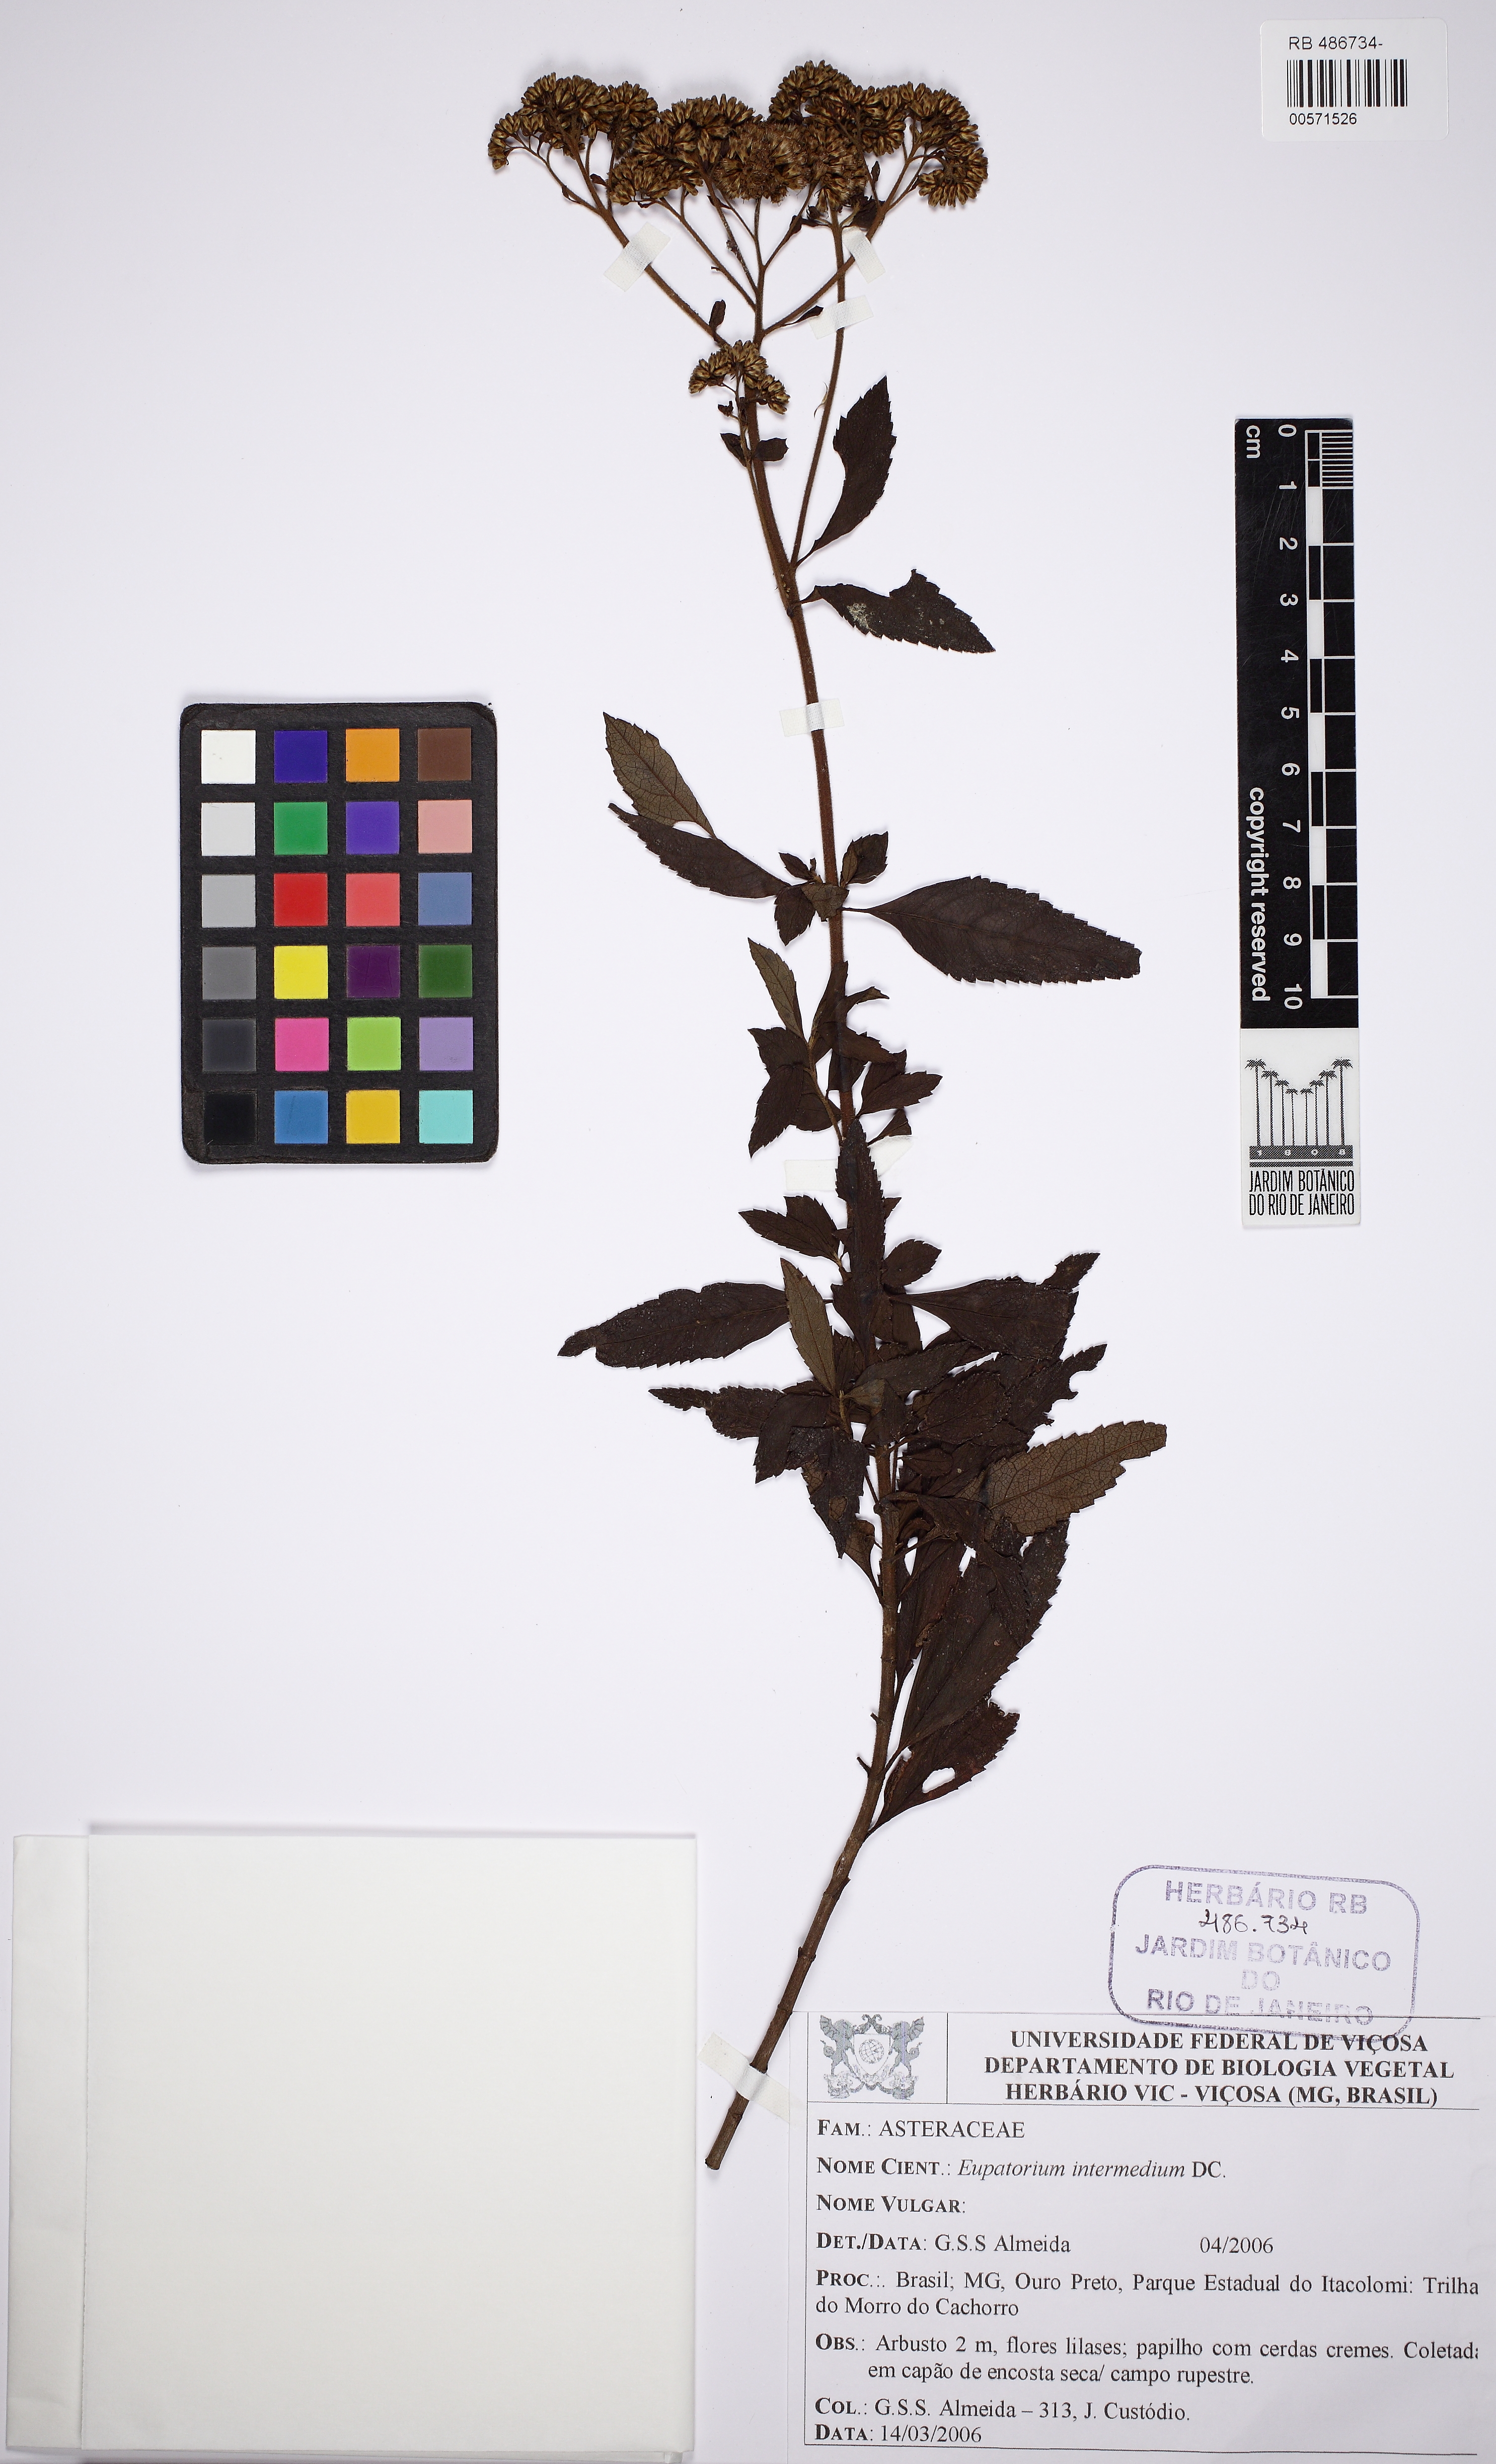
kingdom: Plantae
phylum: Tracheophyta
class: Magnoliopsida
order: Asterales
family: Asteraceae
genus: Grazielia
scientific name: Grazielia gaudichaudeana
